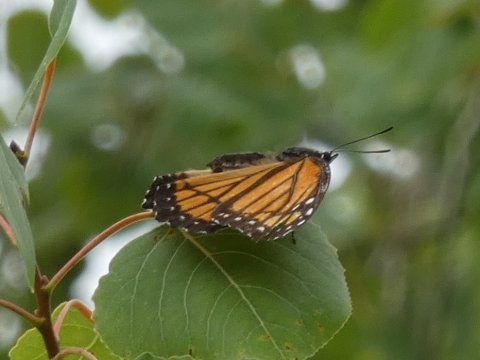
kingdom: Animalia
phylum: Arthropoda
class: Insecta
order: Lepidoptera
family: Nymphalidae
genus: Limenitis
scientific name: Limenitis archippus
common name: Viceroy
